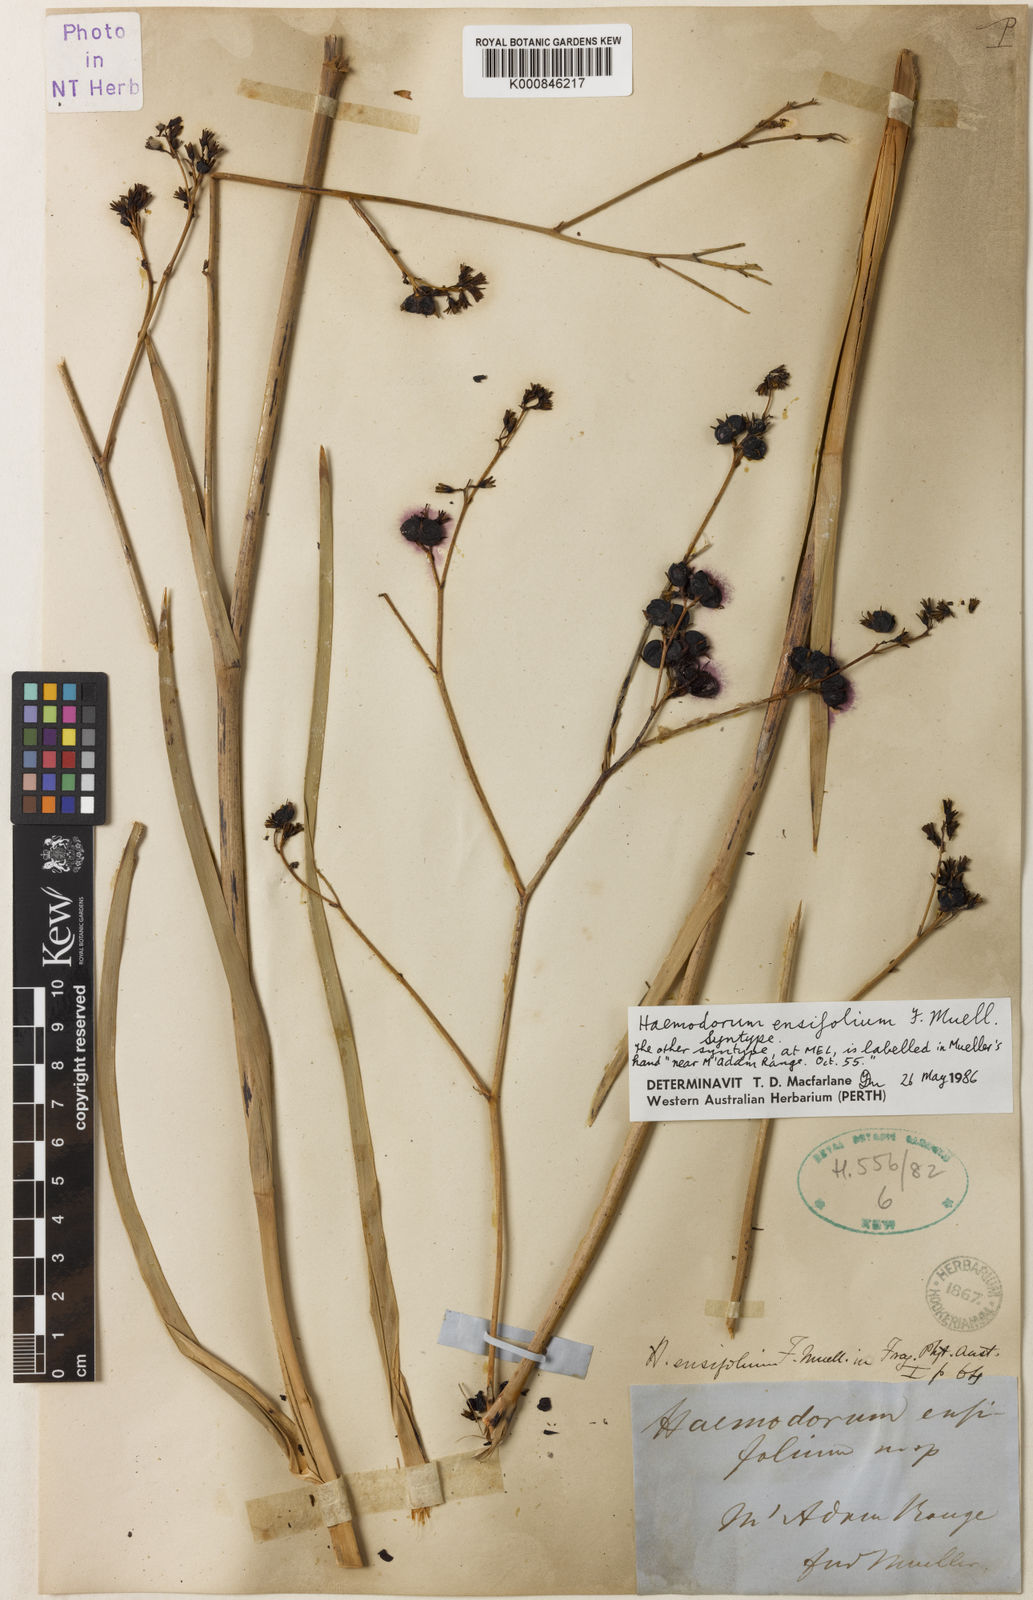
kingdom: Plantae
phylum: Tracheophyta
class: Liliopsida
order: Commelinales
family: Haemodoraceae
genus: Haemodorum
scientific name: Haemodorum ensifolium
